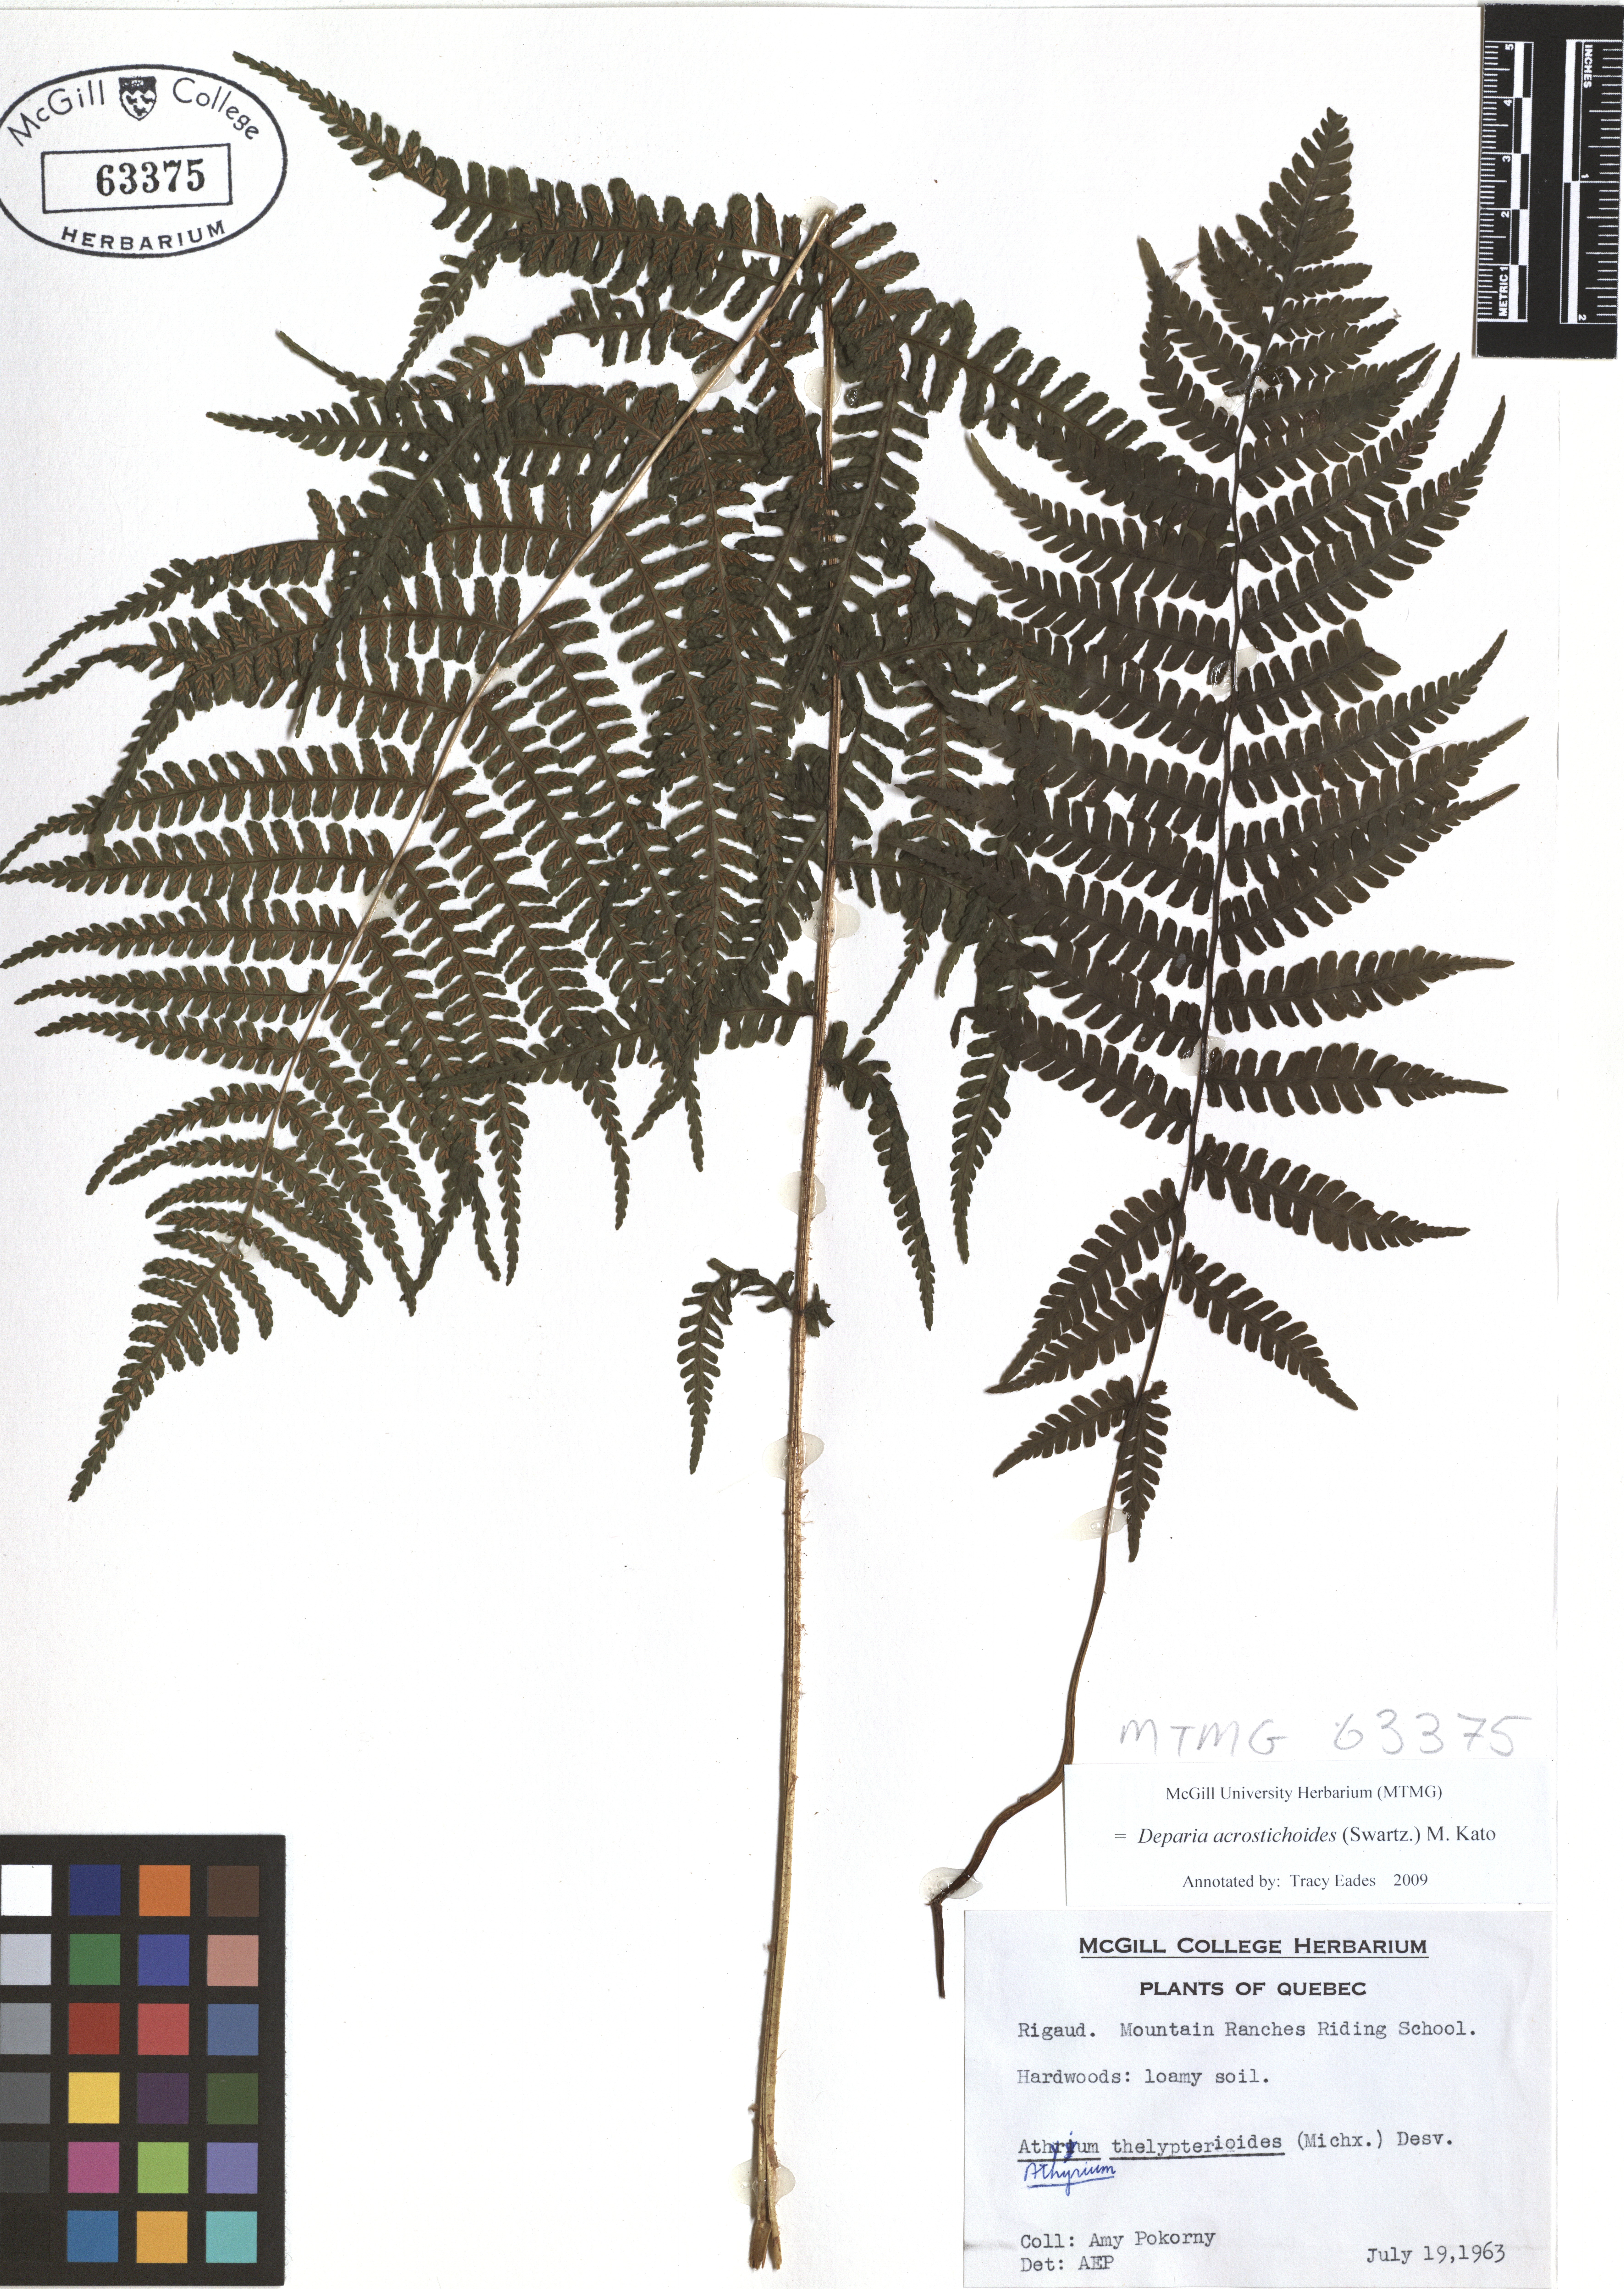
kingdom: Plantae
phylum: Tracheophyta
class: Polypodiopsida
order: Polypodiales
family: Athyriaceae
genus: Deparia
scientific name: Deparia acrostichoides
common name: Silver false spleenwort
